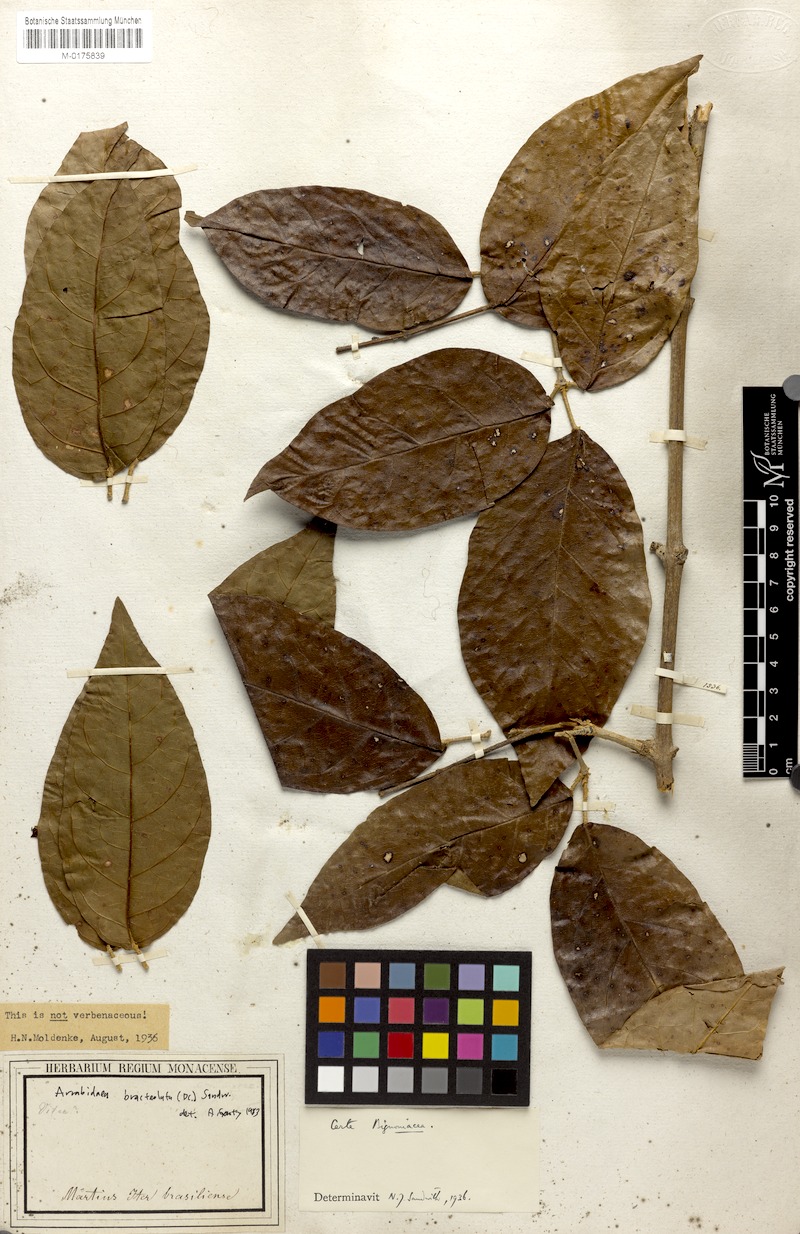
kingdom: Plantae
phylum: Tracheophyta
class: Magnoliopsida
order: Lamiales
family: Bignoniaceae
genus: Cuspidaria
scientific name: Cuspidaria bracteolata
